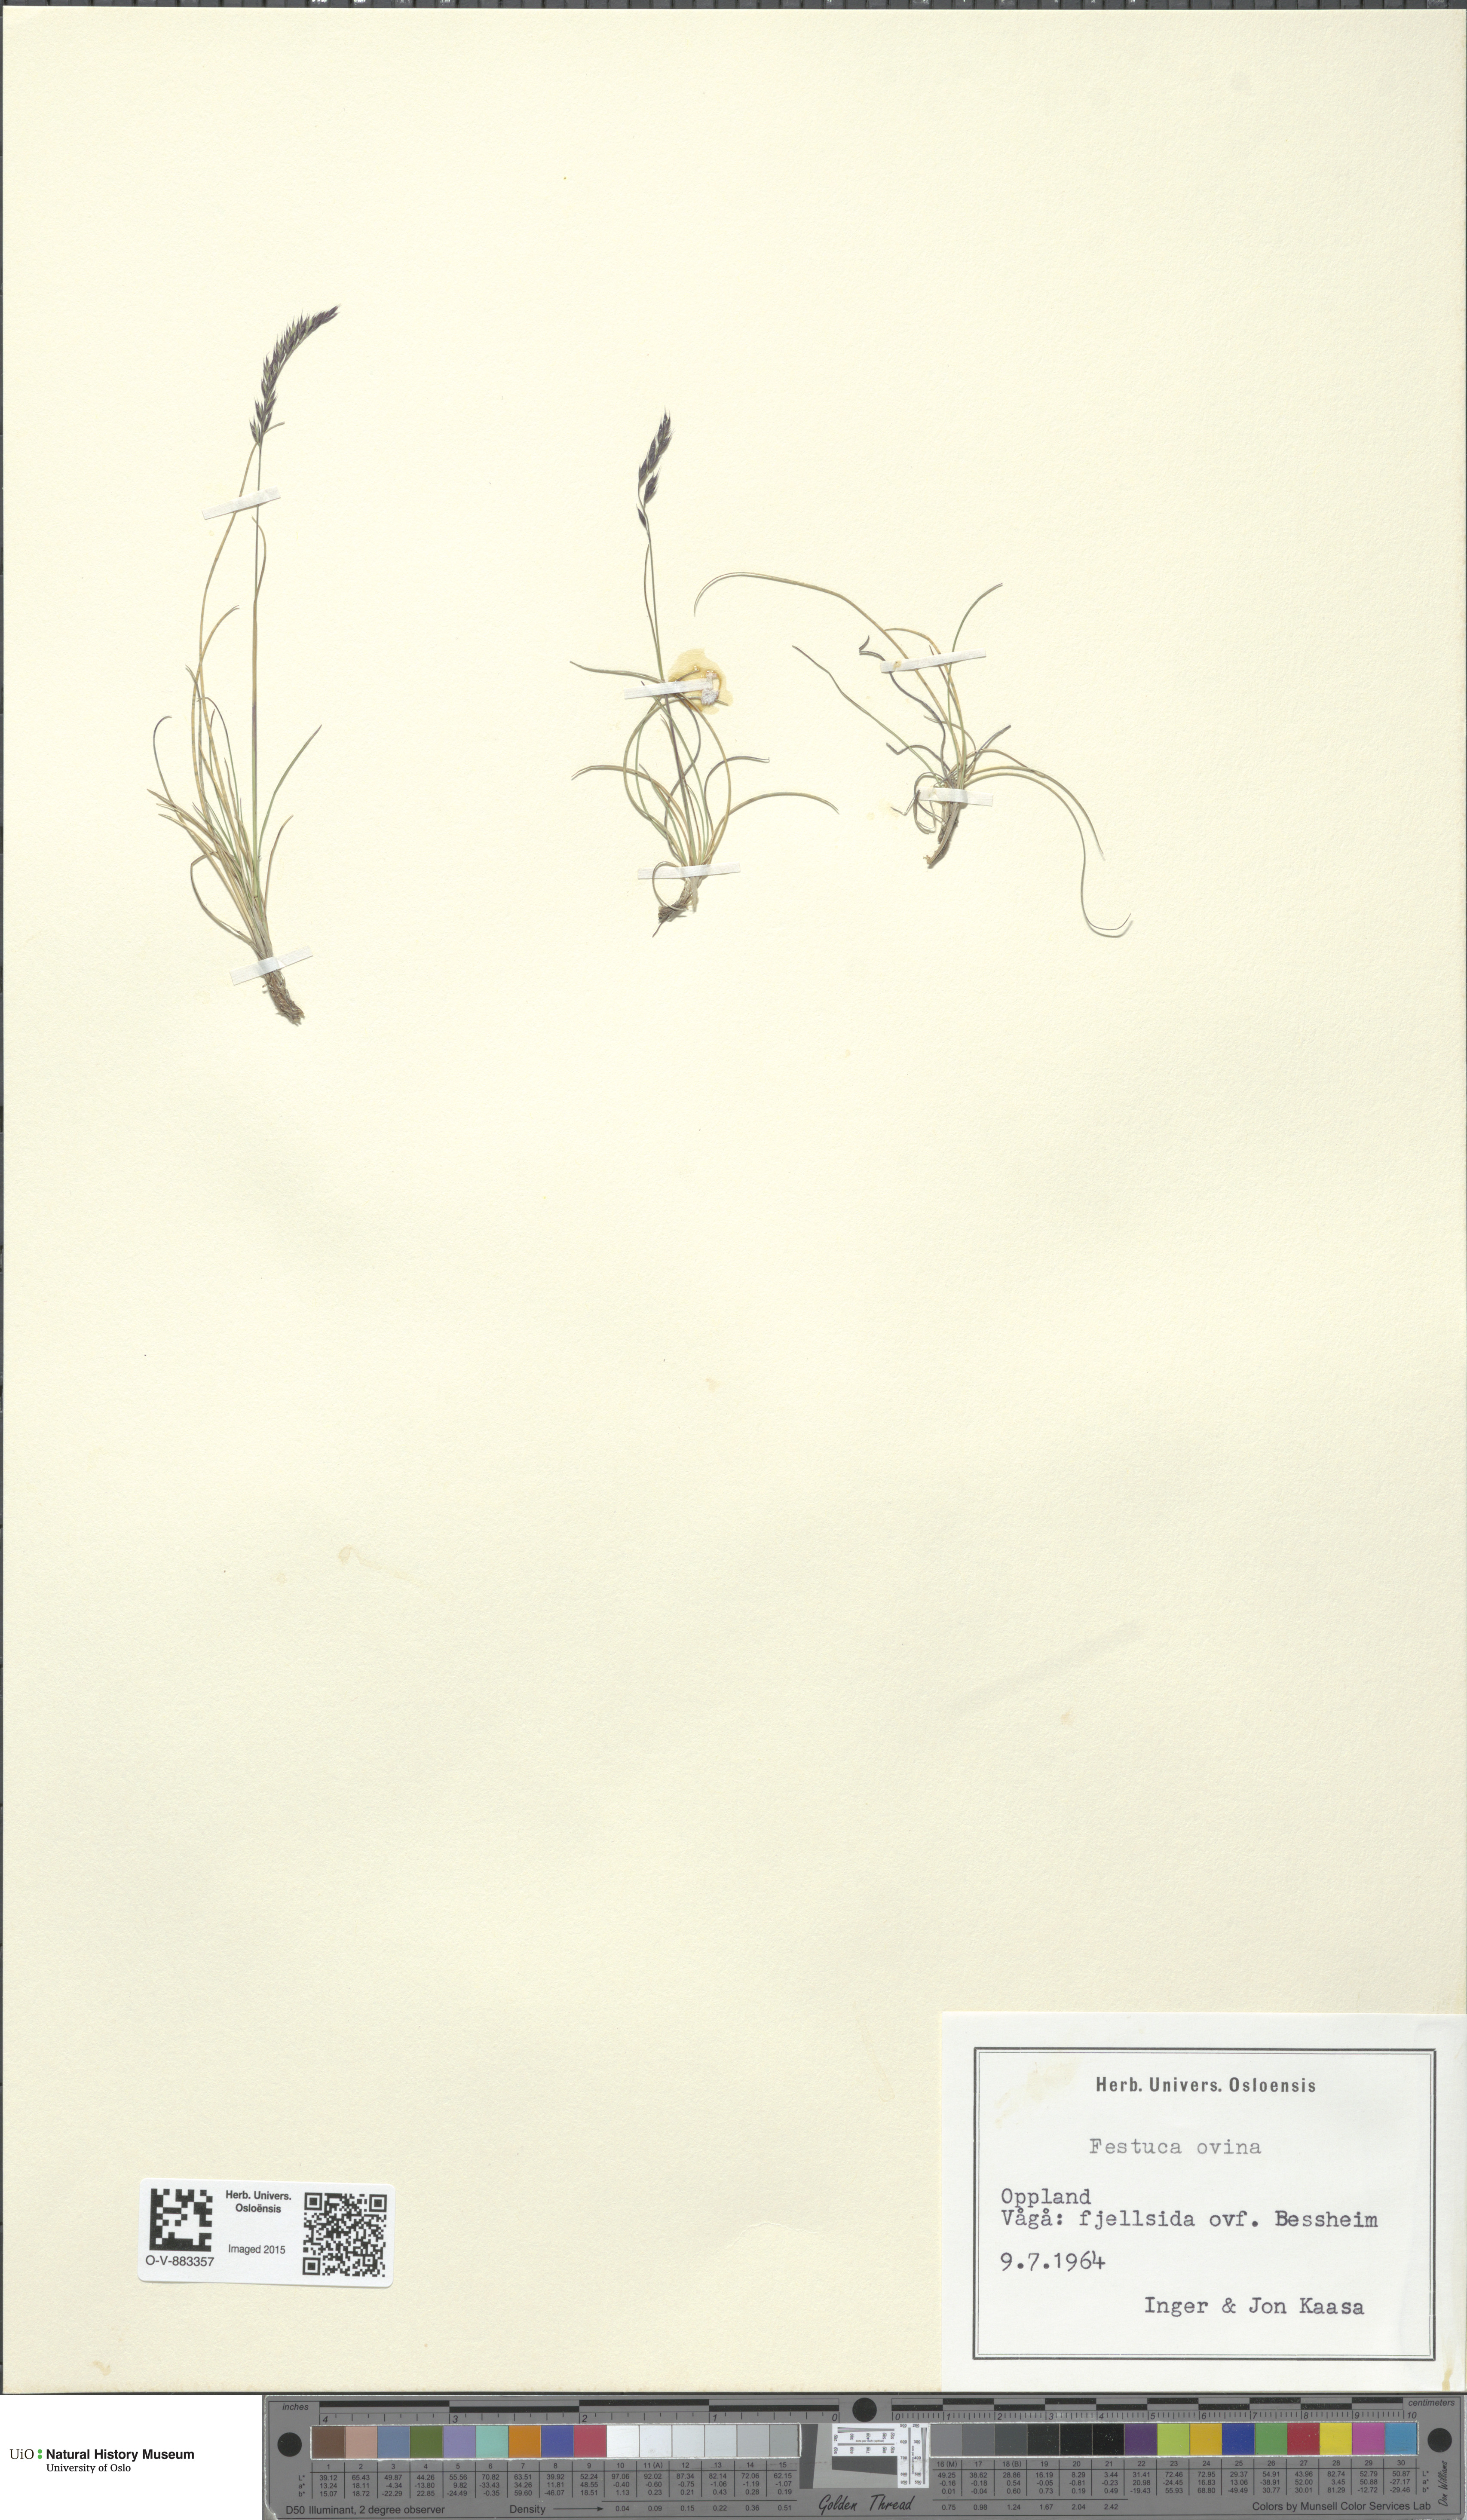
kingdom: Plantae
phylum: Tracheophyta
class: Liliopsida
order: Poales
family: Poaceae
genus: Festuca
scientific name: Festuca ovina
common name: Sheep fescue
